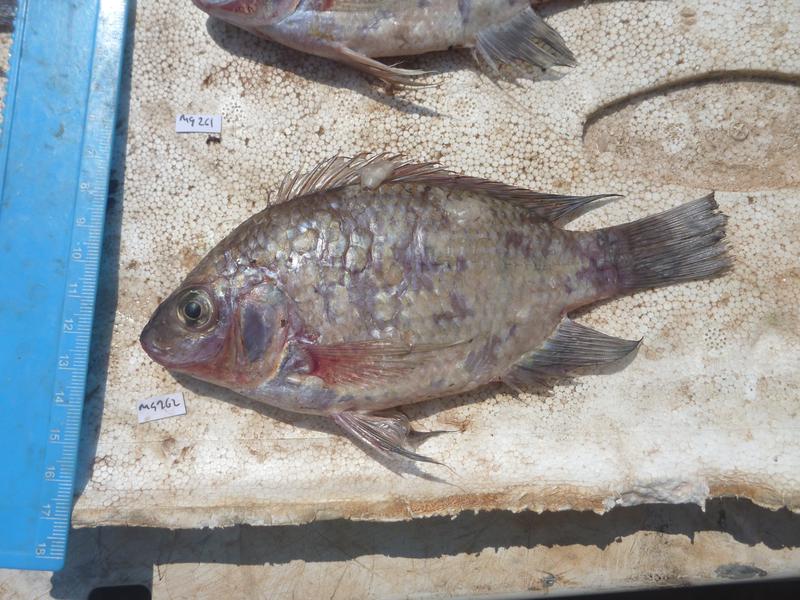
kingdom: Animalia
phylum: Chordata
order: Perciformes
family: Cichlidae
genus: Oreochromis
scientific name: Oreochromis upembae
